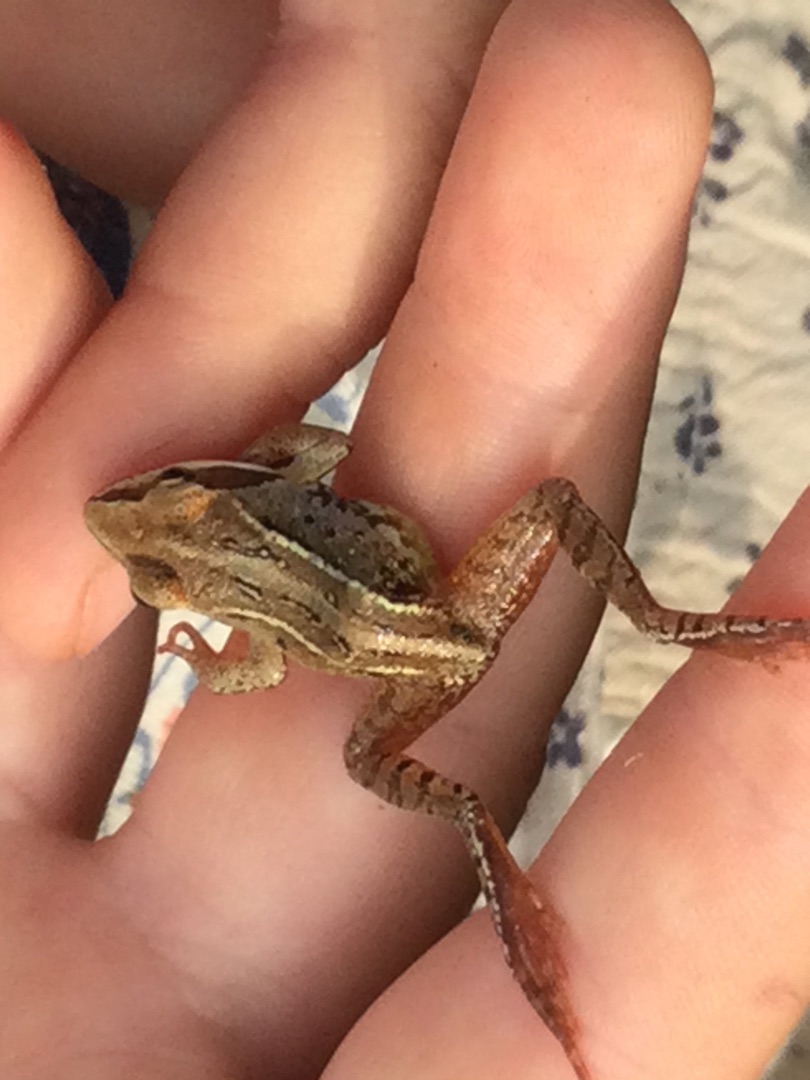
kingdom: Animalia
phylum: Chordata
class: Amphibia
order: Anura
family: Ranidae
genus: Rana
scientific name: Rana arvalis
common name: Spidssnudet frø
